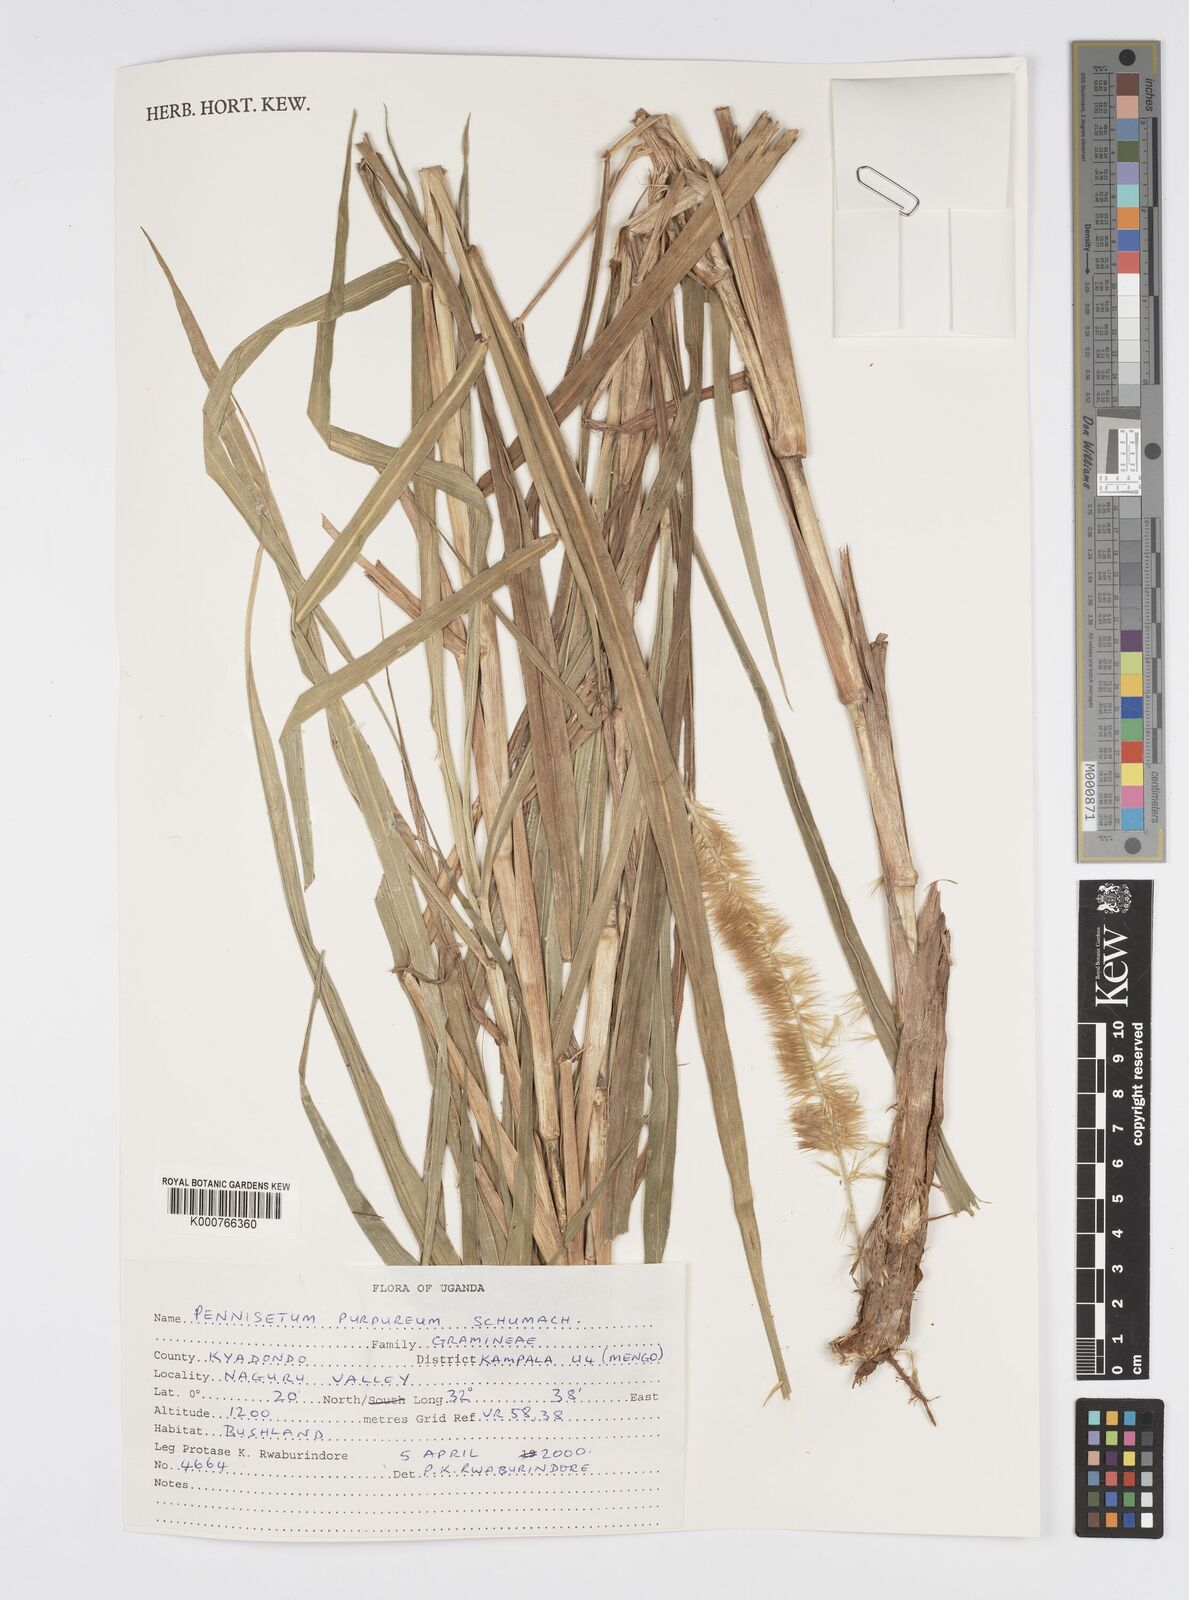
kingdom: Plantae
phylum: Tracheophyta
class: Liliopsida
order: Poales
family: Poaceae
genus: Cenchrus
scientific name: Cenchrus purpureus
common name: Elephant grass
